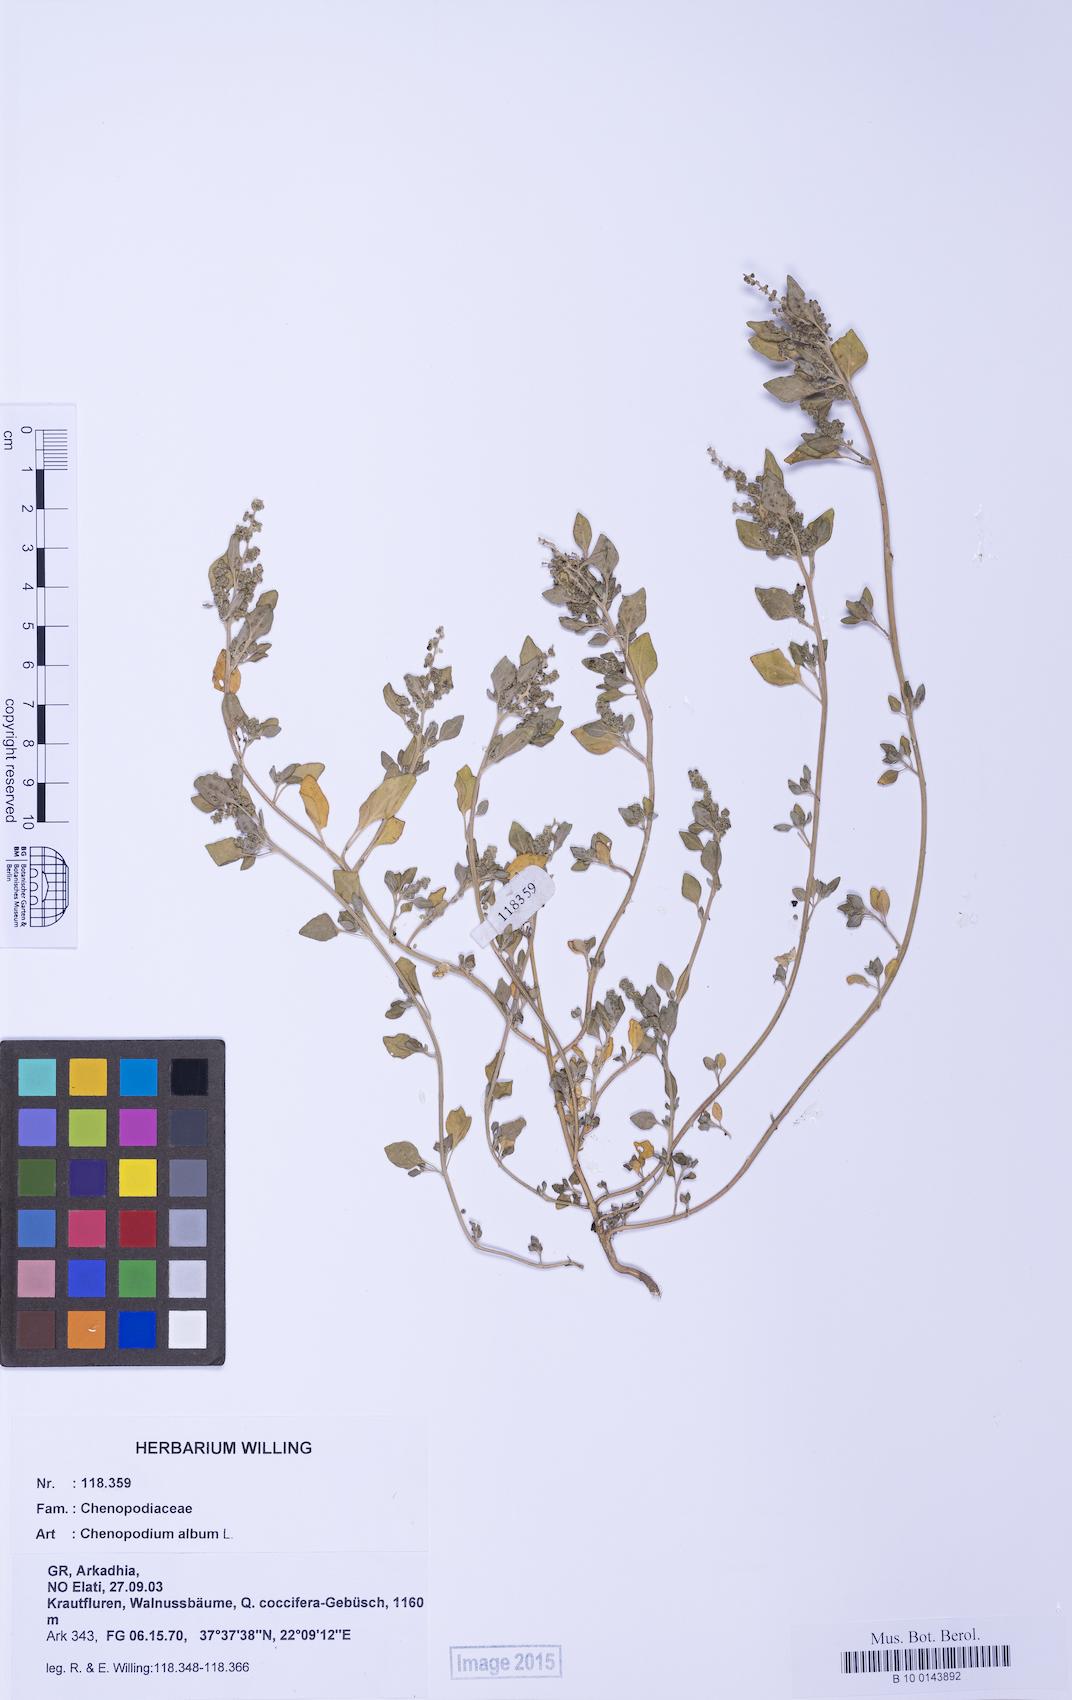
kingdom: Plantae
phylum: Tracheophyta
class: Magnoliopsida
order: Caryophyllales
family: Amaranthaceae
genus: Chenopodium
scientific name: Chenopodium vulvaria
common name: Stinking goosefoot
